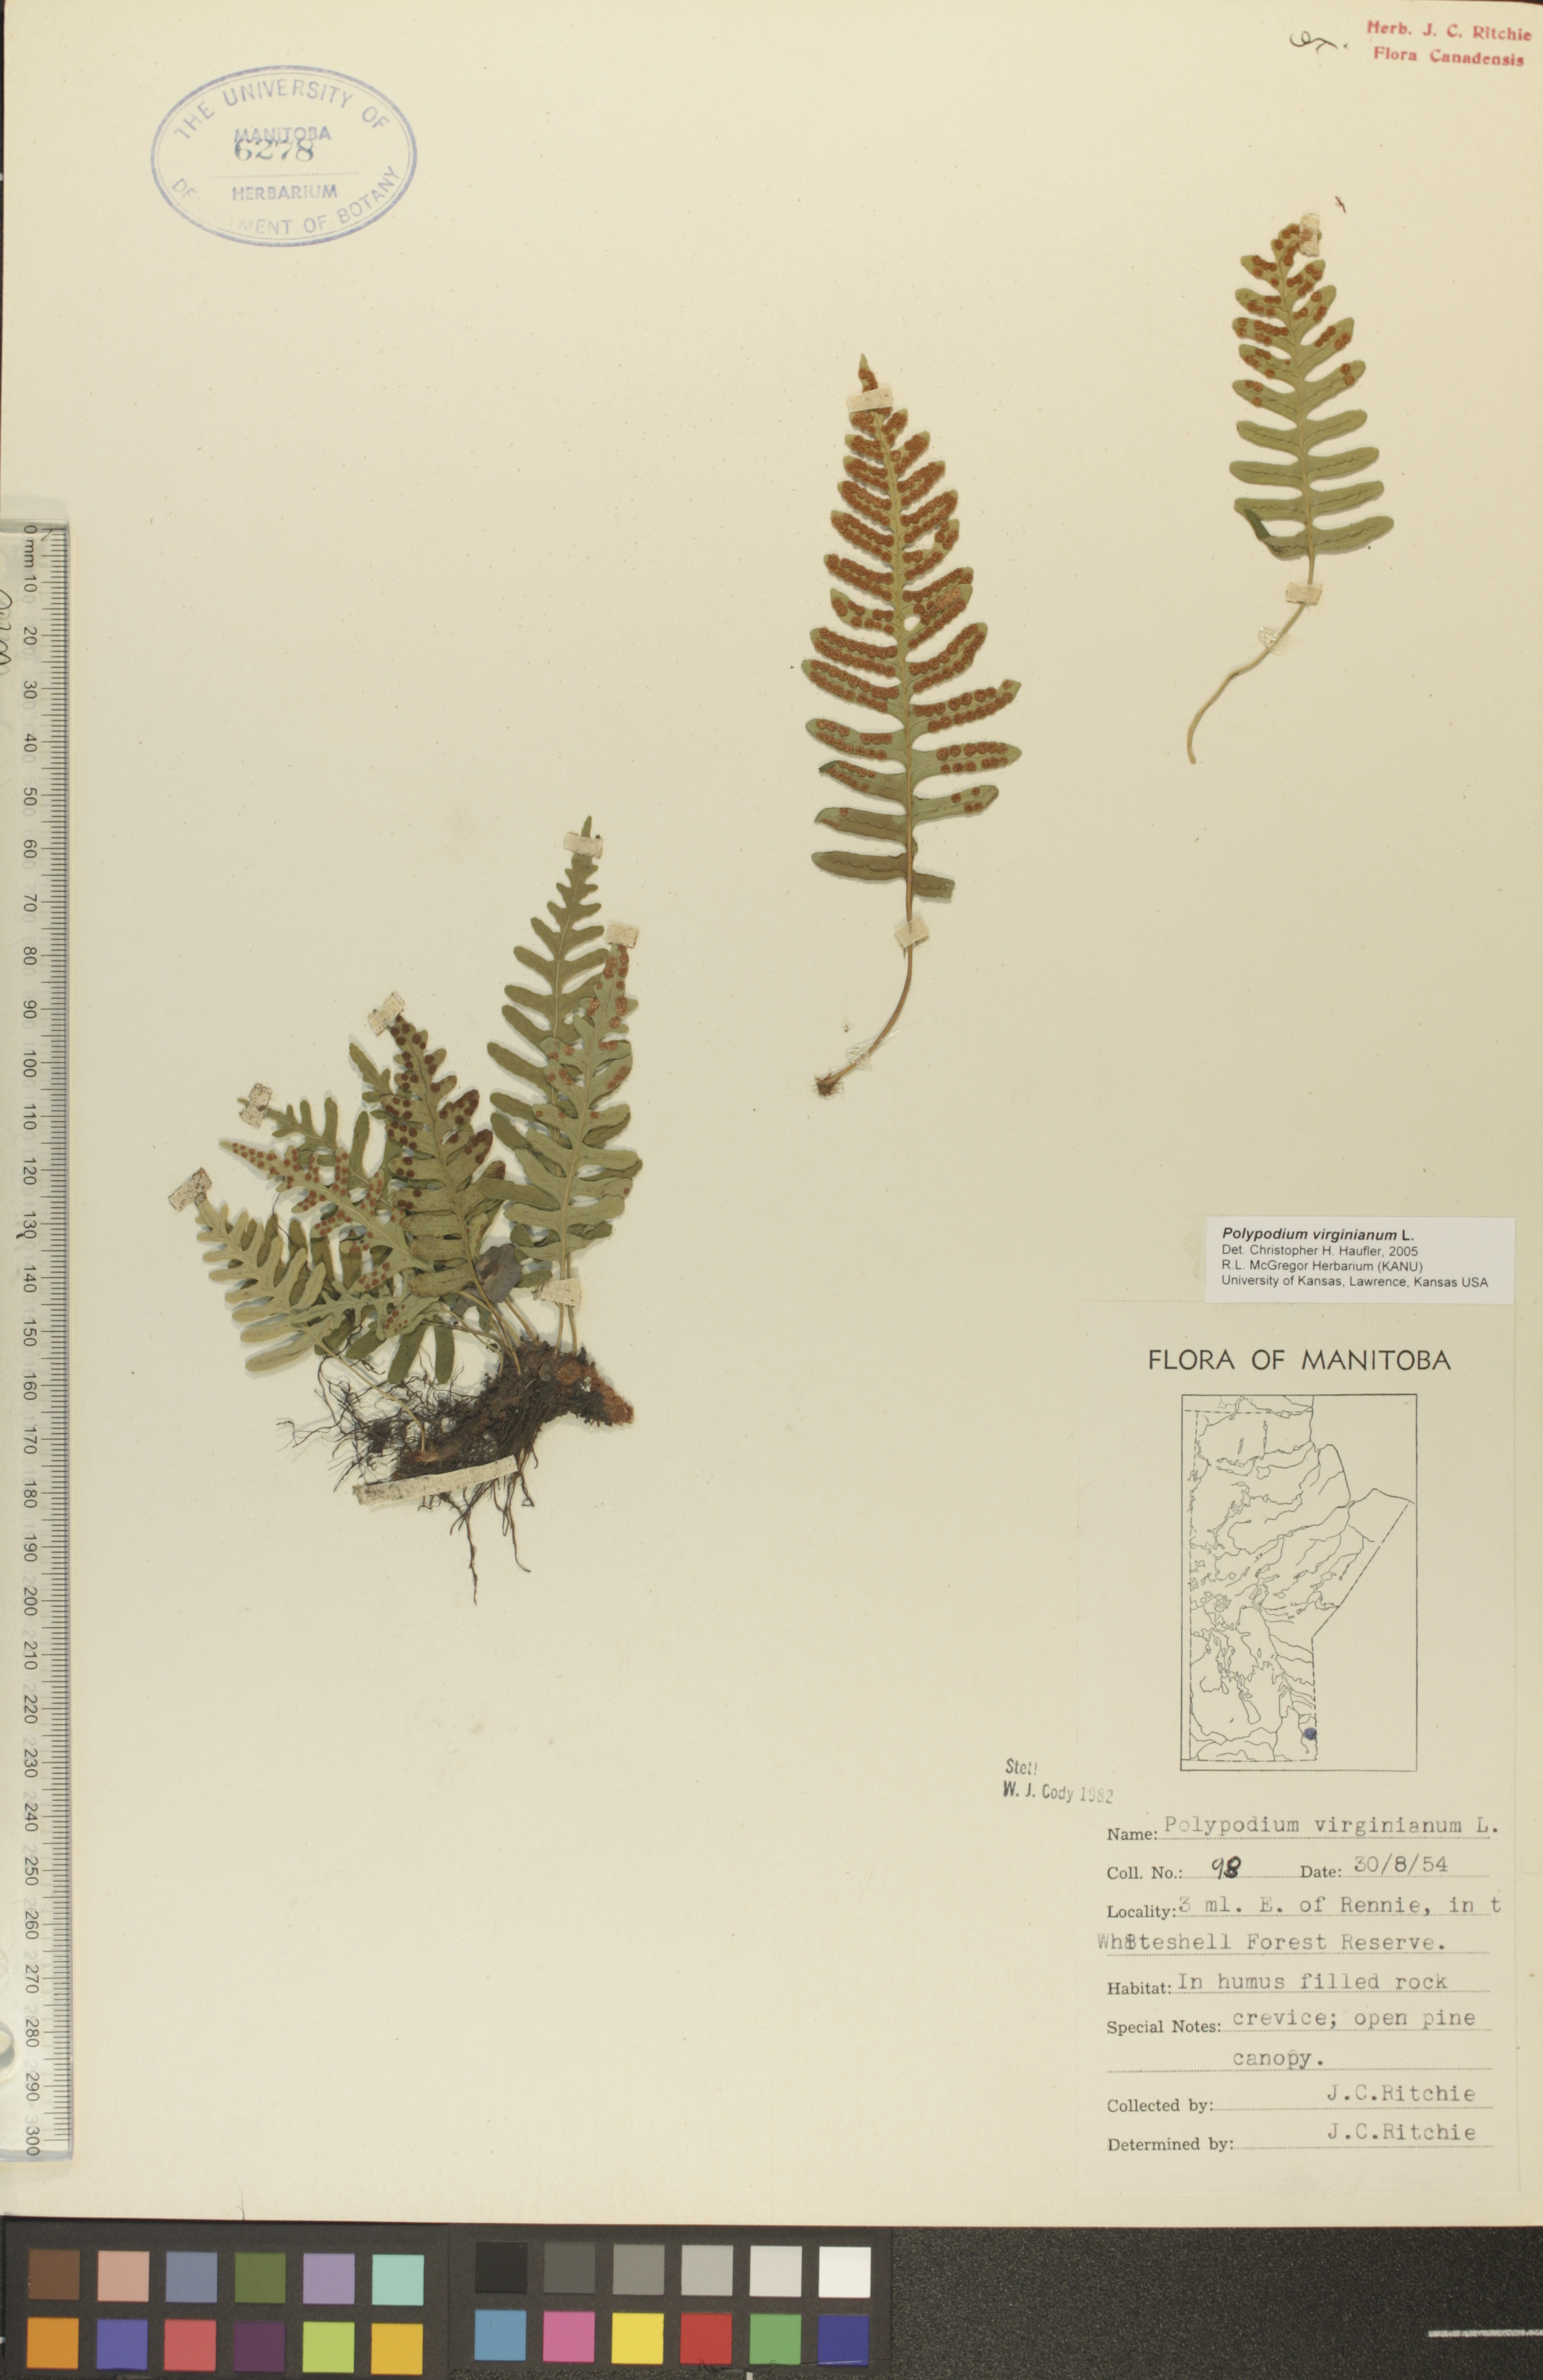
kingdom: Plantae
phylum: Tracheophyta
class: Polypodiopsida
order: Polypodiales
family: Polypodiaceae
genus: Polypodium
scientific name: Polypodium virginianum
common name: American wall fern
